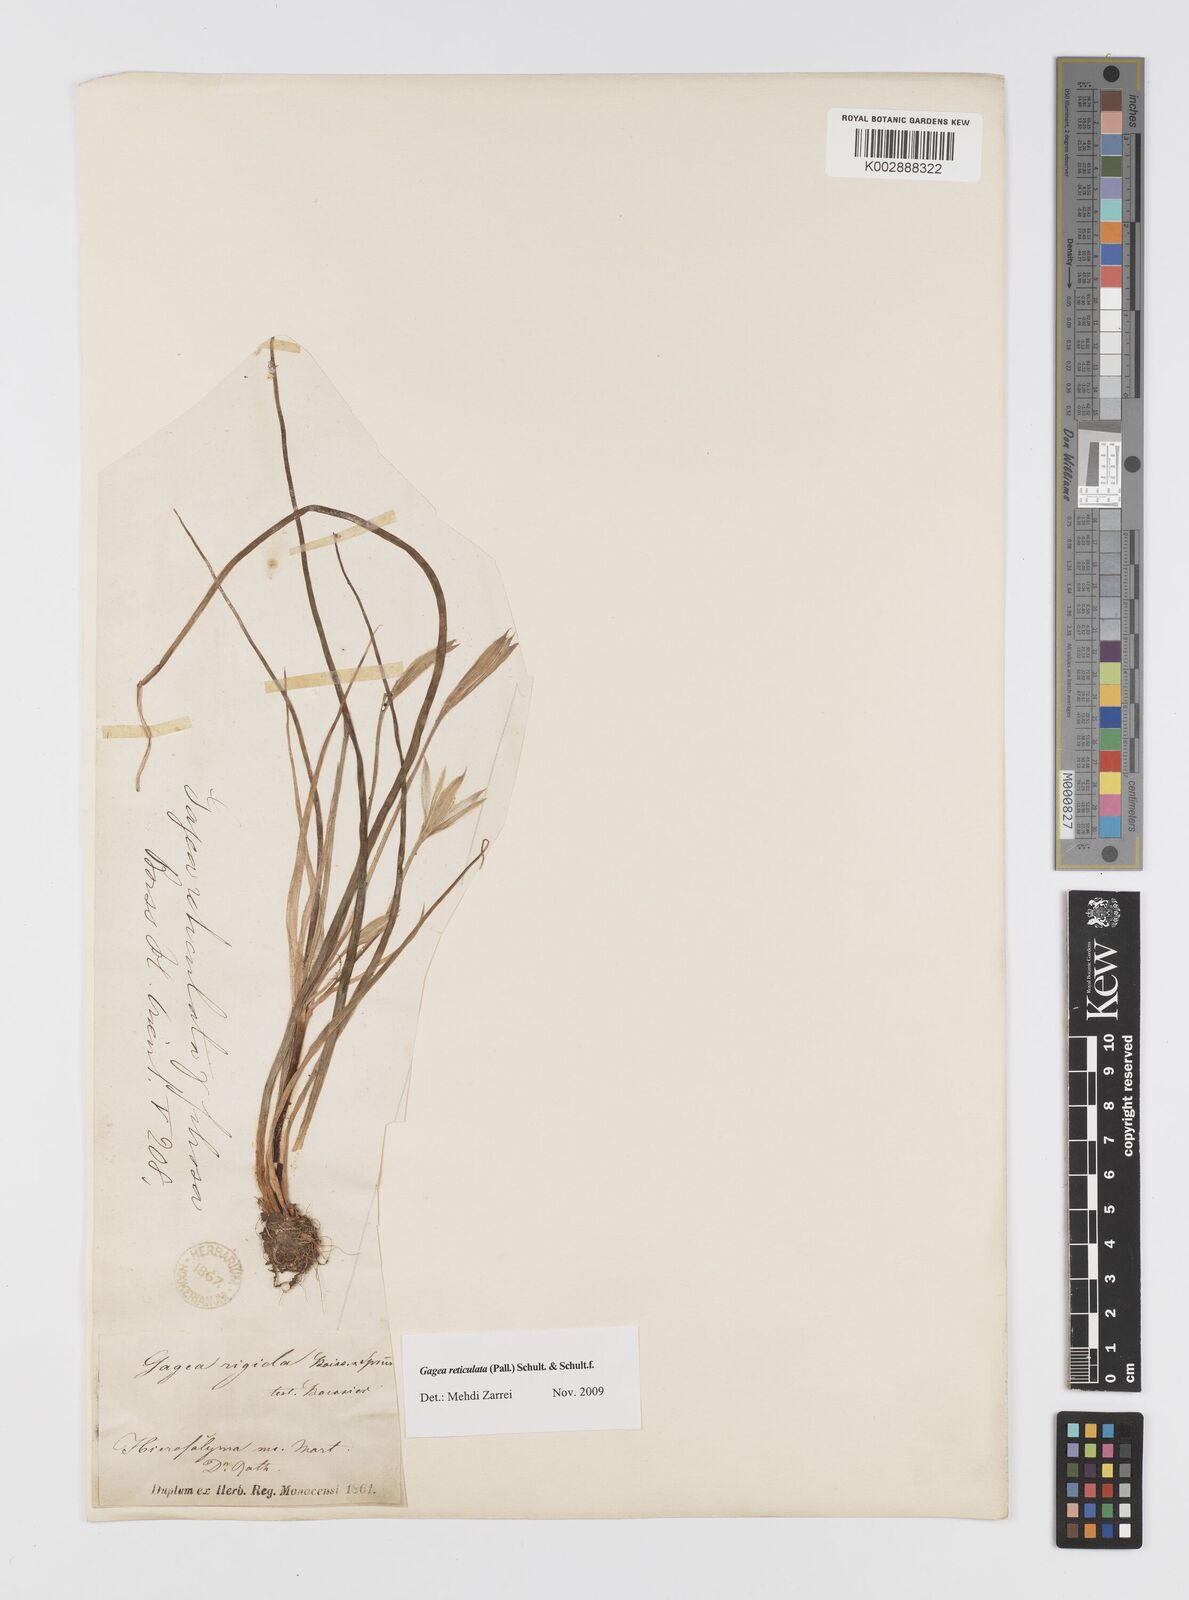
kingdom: Plantae
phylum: Tracheophyta
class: Liliopsida
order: Liliales
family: Liliaceae
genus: Gagea
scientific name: Gagea reticulata
